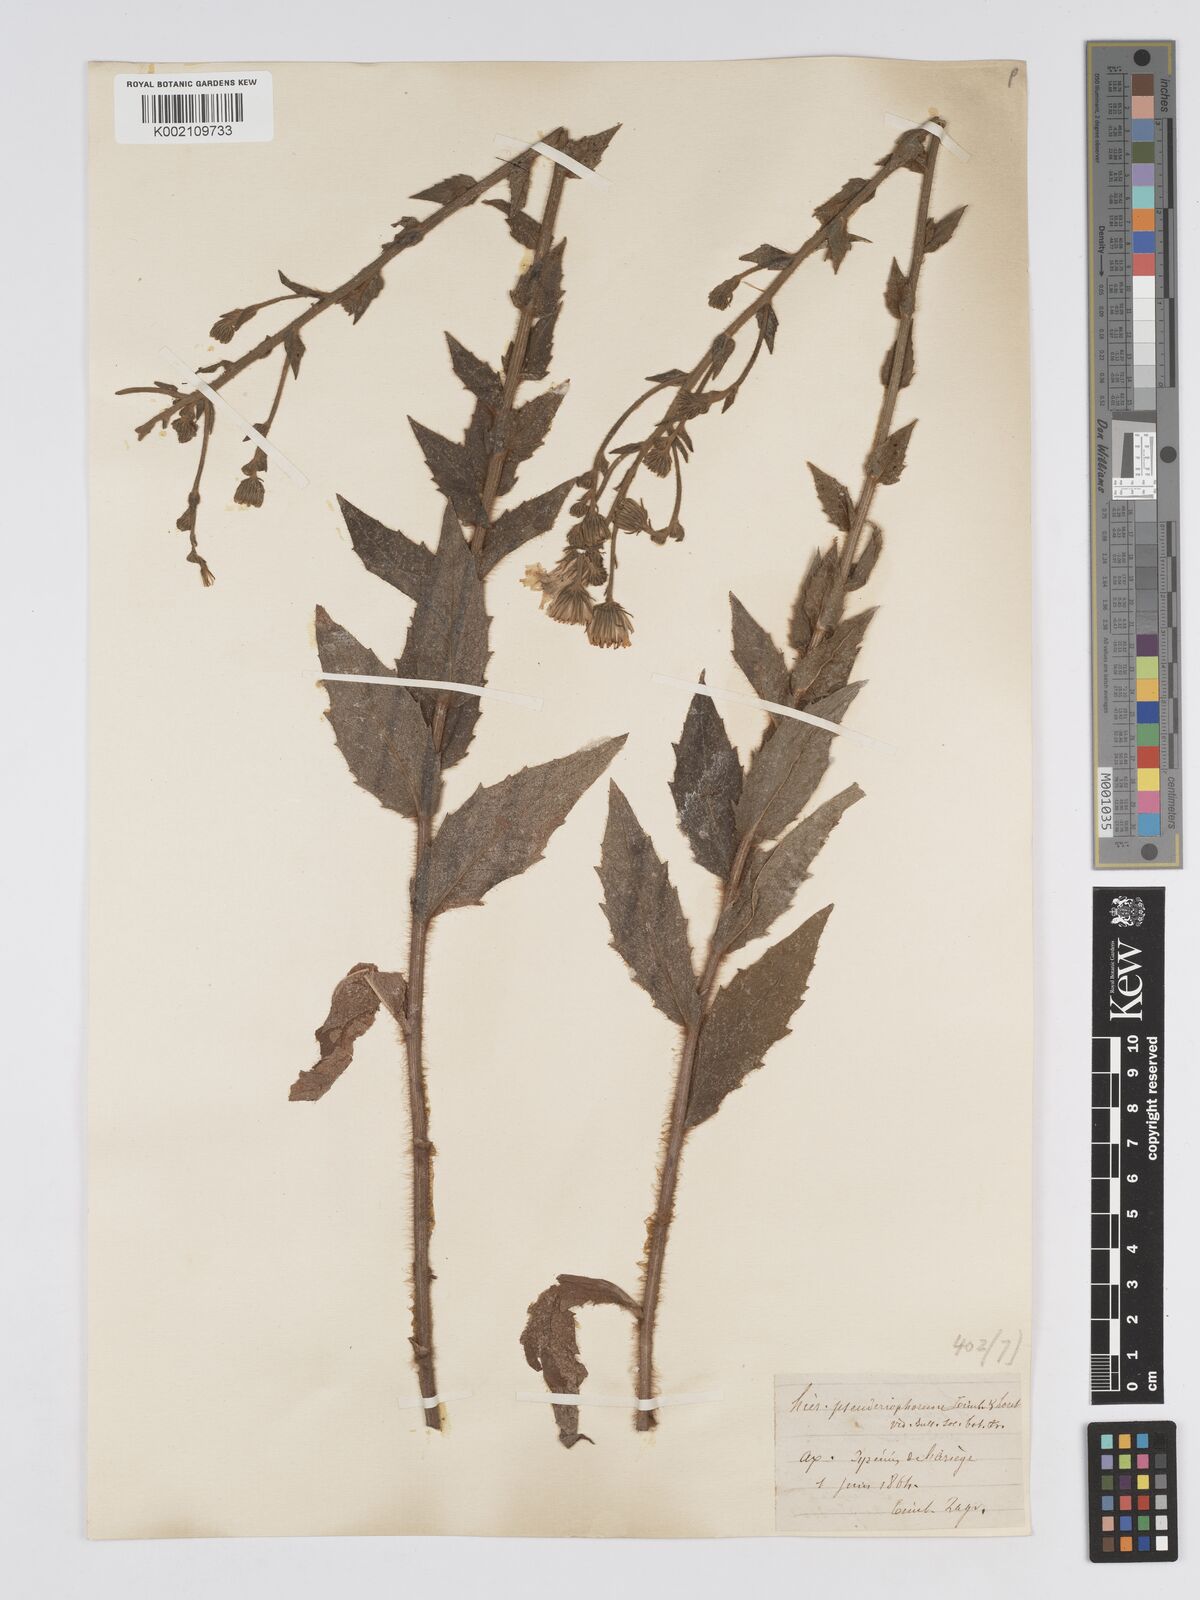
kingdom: Plantae
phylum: Tracheophyta
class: Magnoliopsida
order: Asterales
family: Asteraceae
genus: Hieracium
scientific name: Hieracium patens
